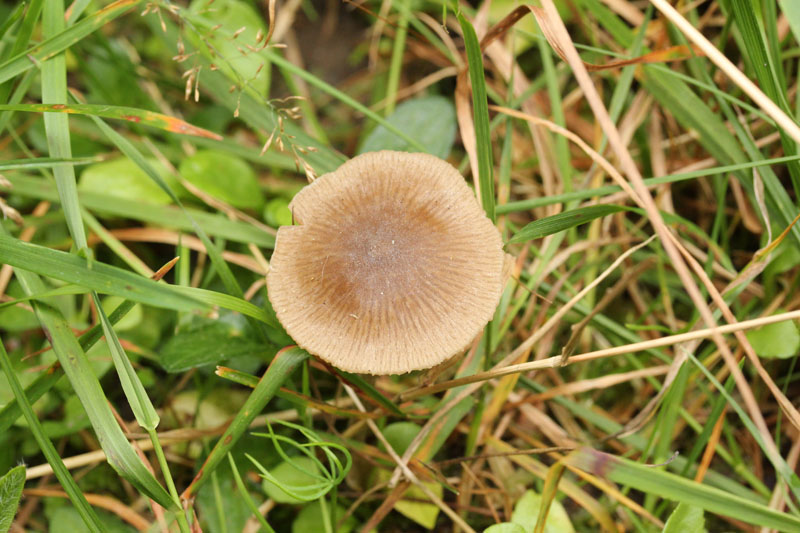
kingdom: Fungi
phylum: Basidiomycota
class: Agaricomycetes
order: Agaricales
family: Entolomataceae
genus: Entoloma
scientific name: Entoloma conferendum
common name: stjernesporet rødblad
